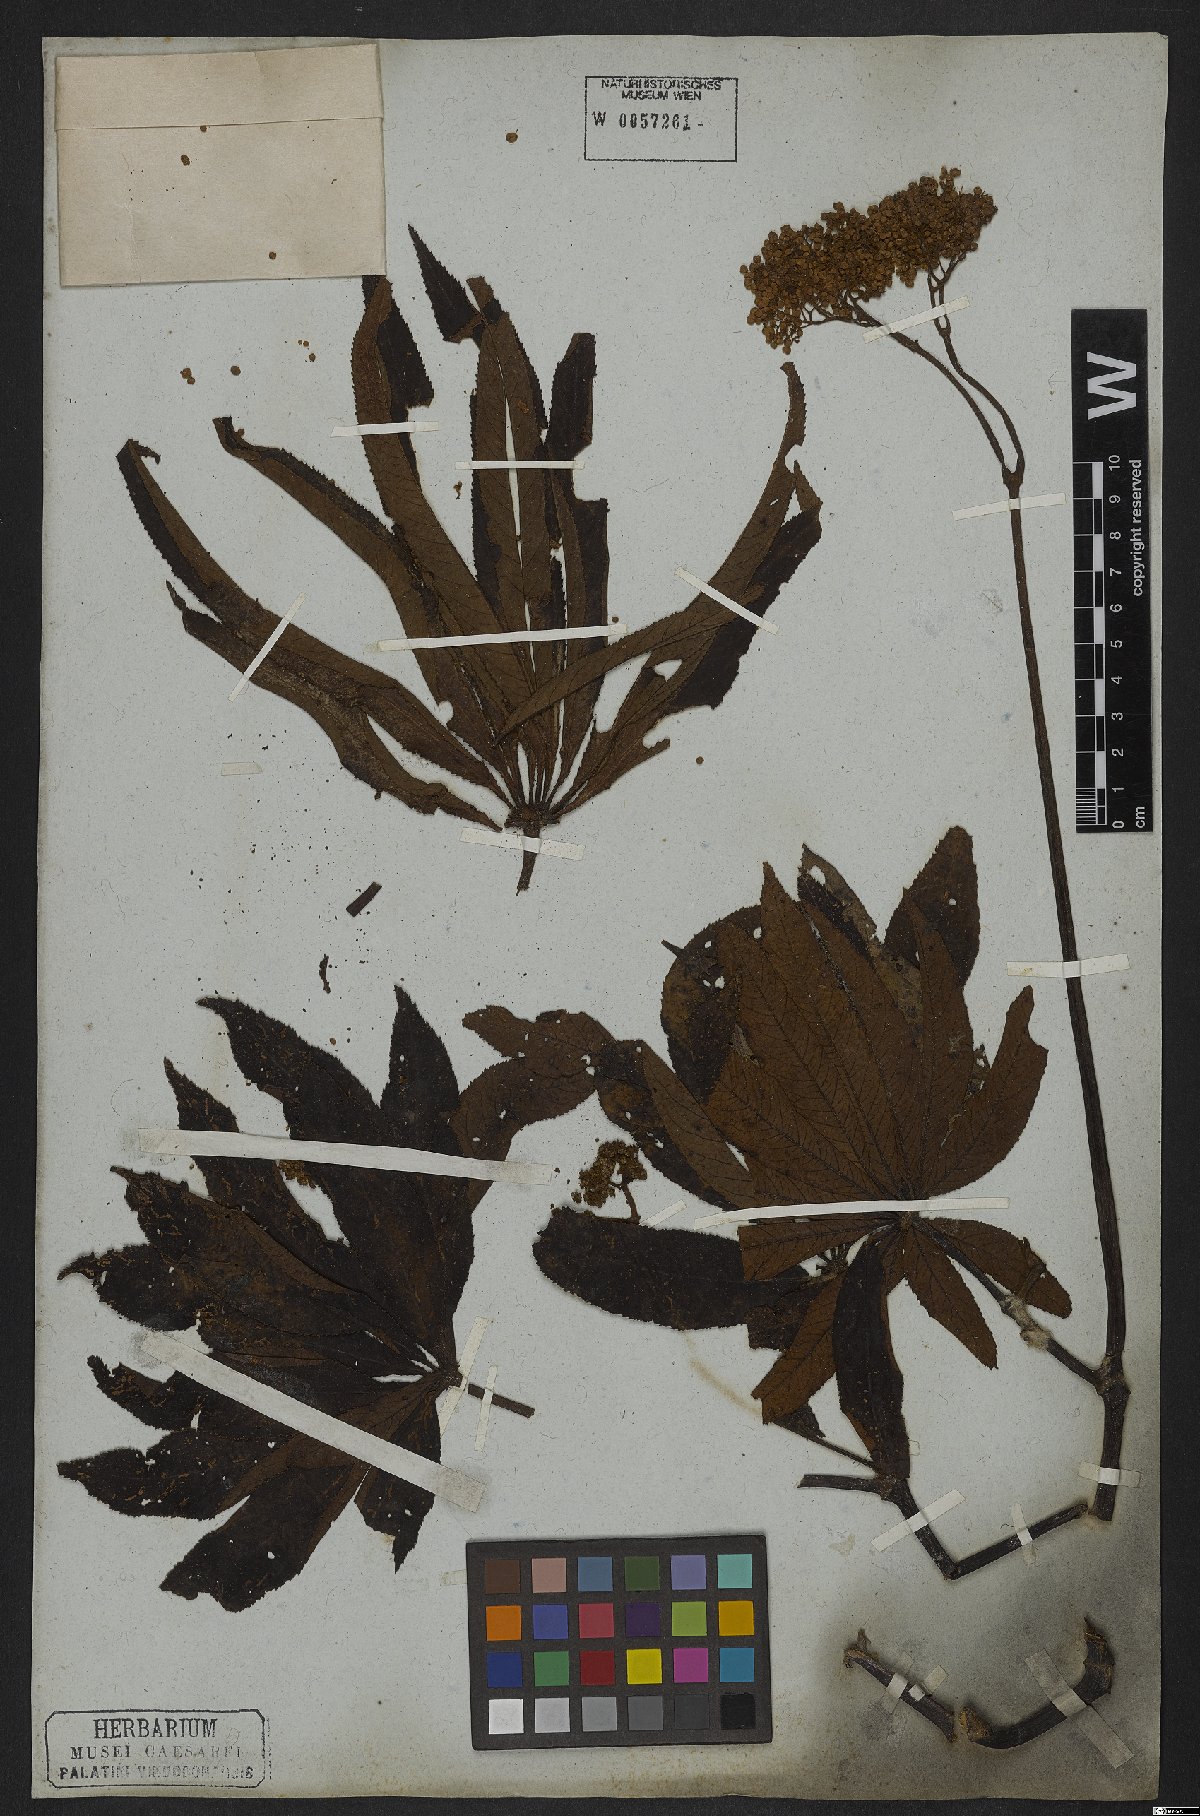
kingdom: Plantae
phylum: Tracheophyta
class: Magnoliopsida
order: Cucurbitales
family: Begoniaceae
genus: Begonia
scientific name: Begonia digitata
